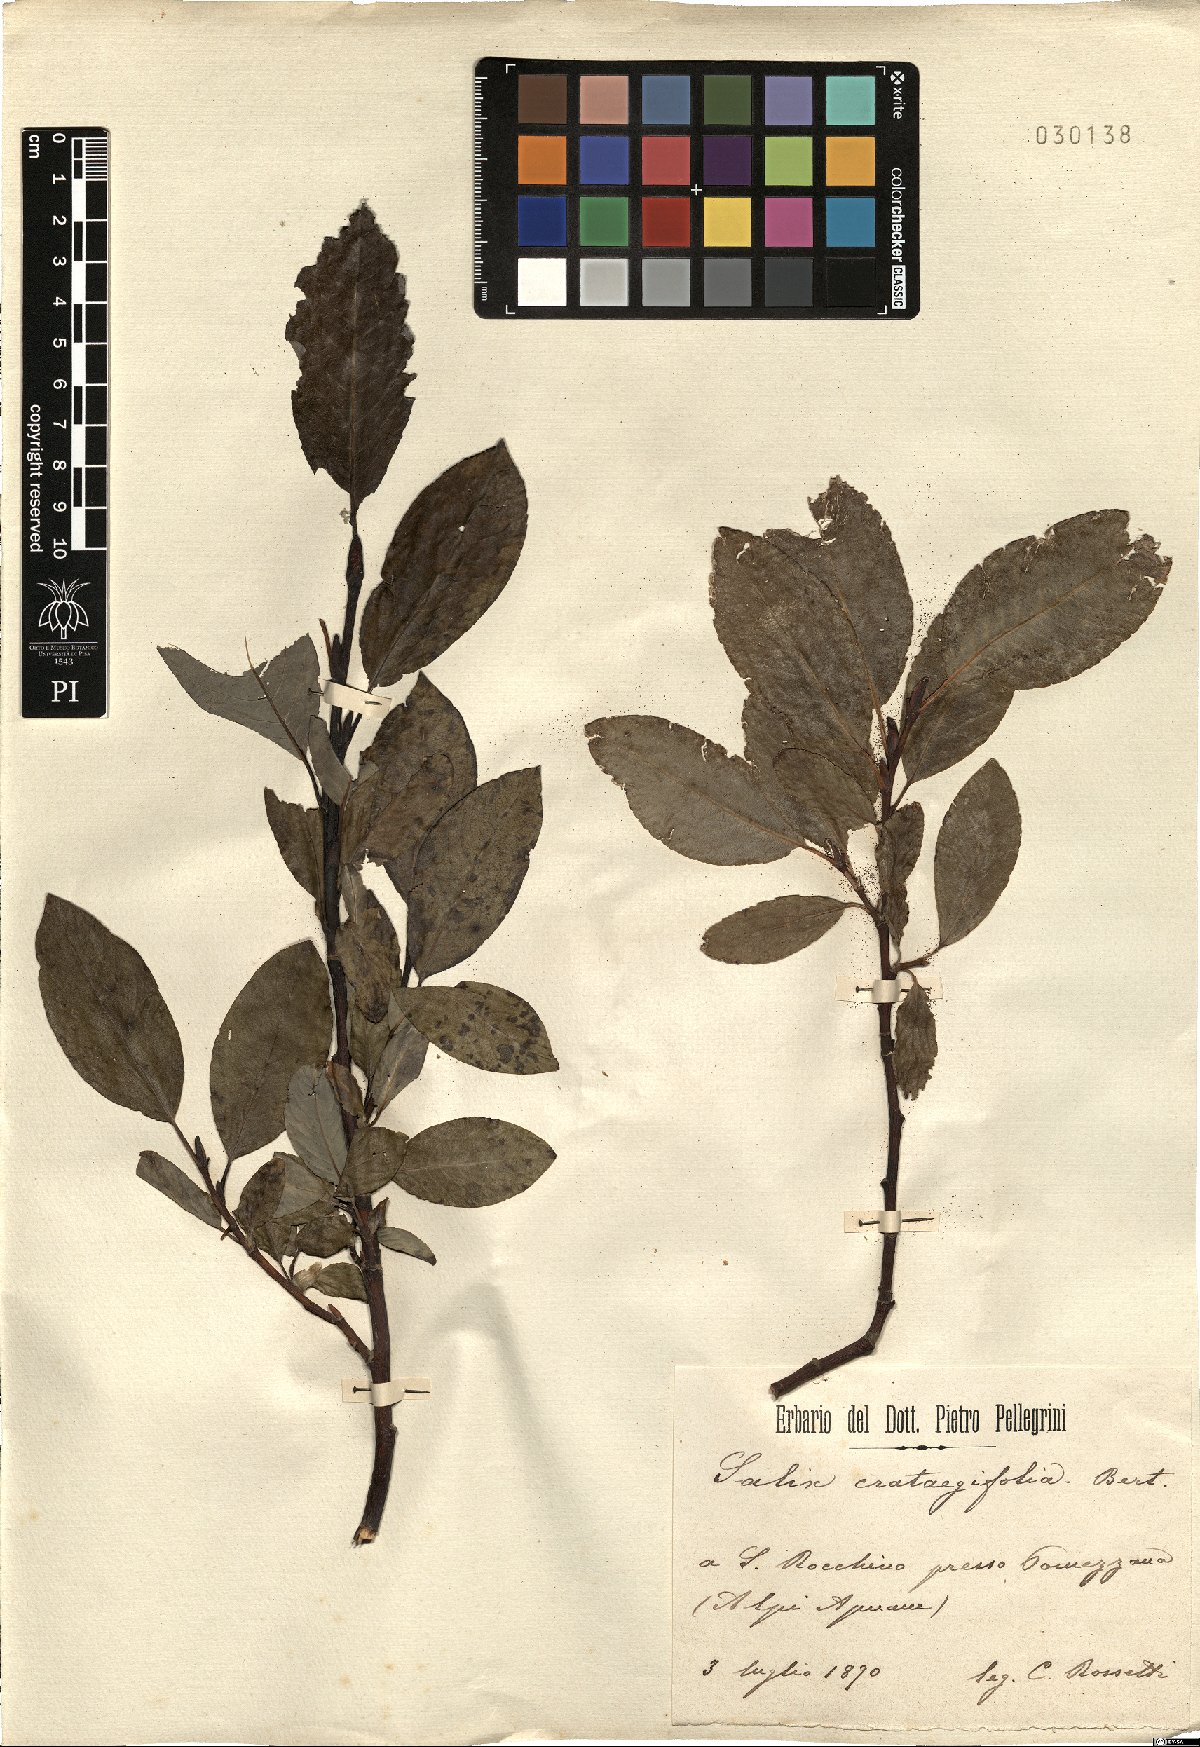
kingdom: Plantae
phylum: Tracheophyta
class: Magnoliopsida
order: Malpighiales
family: Salicaceae
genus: Salix
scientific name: Salix crataegifolia
